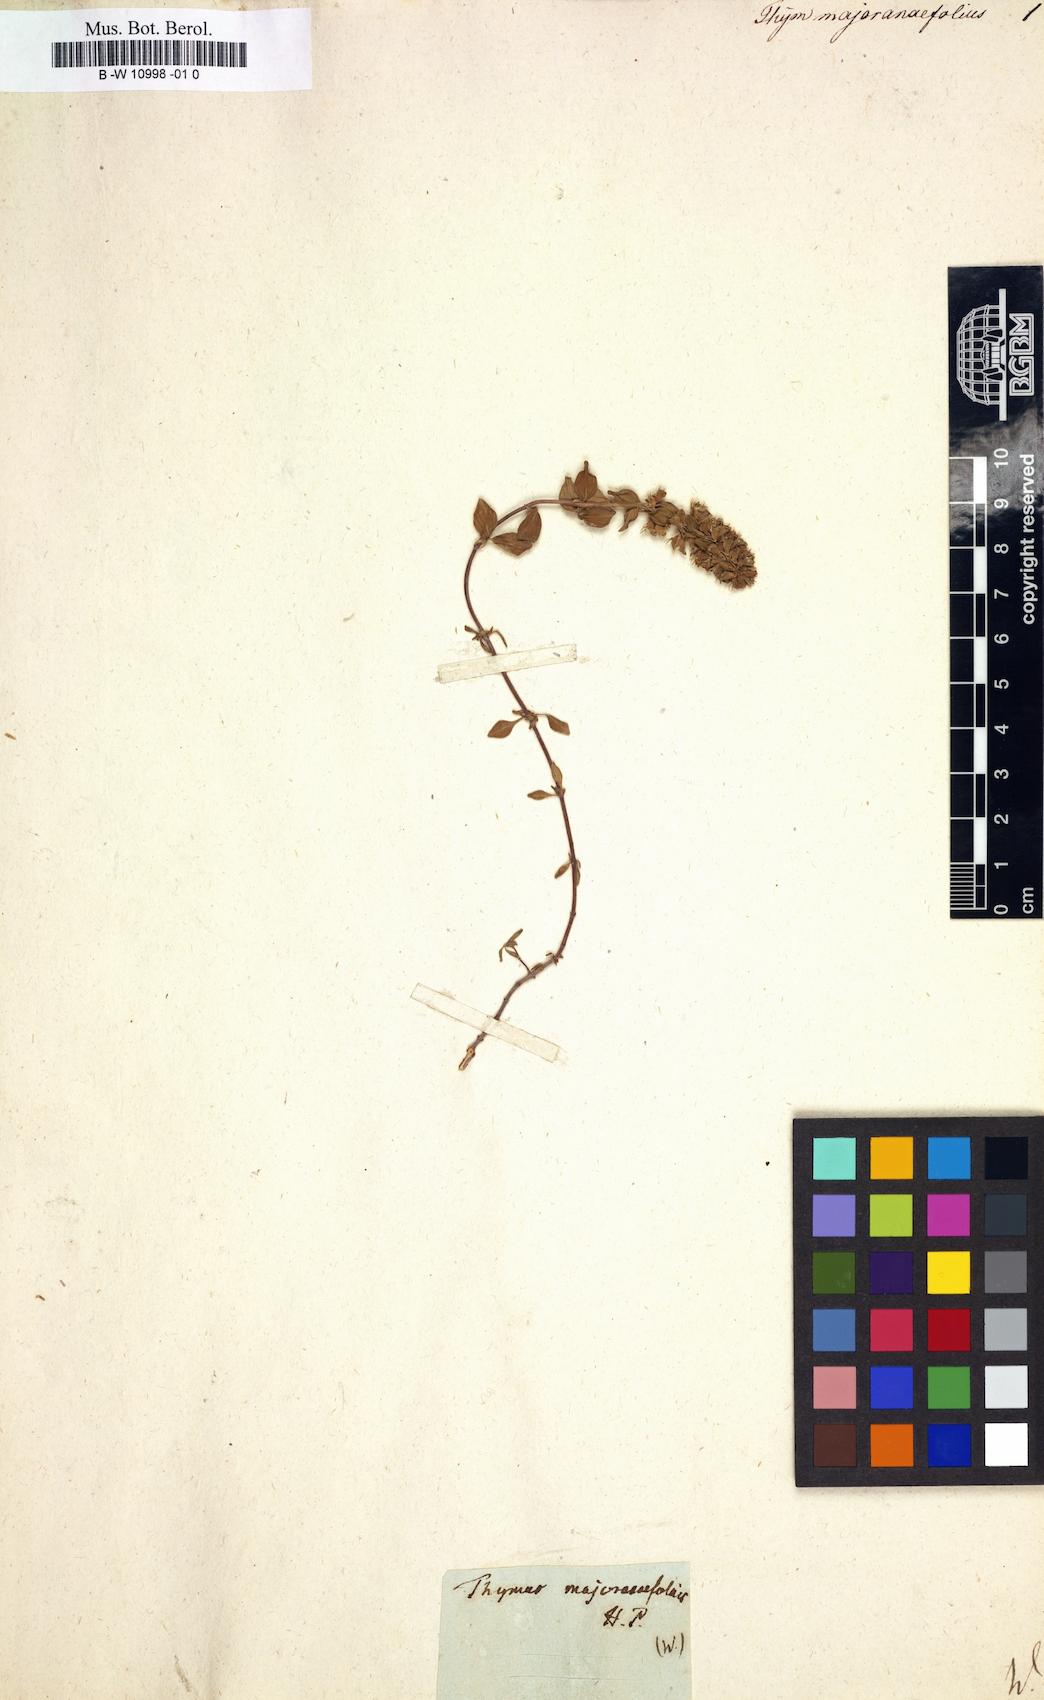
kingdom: Plantae
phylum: Tracheophyta
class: Magnoliopsida
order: Lamiales
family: Lamiaceae
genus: Thymus
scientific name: Thymus serpyllum
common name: Breckland thyme
